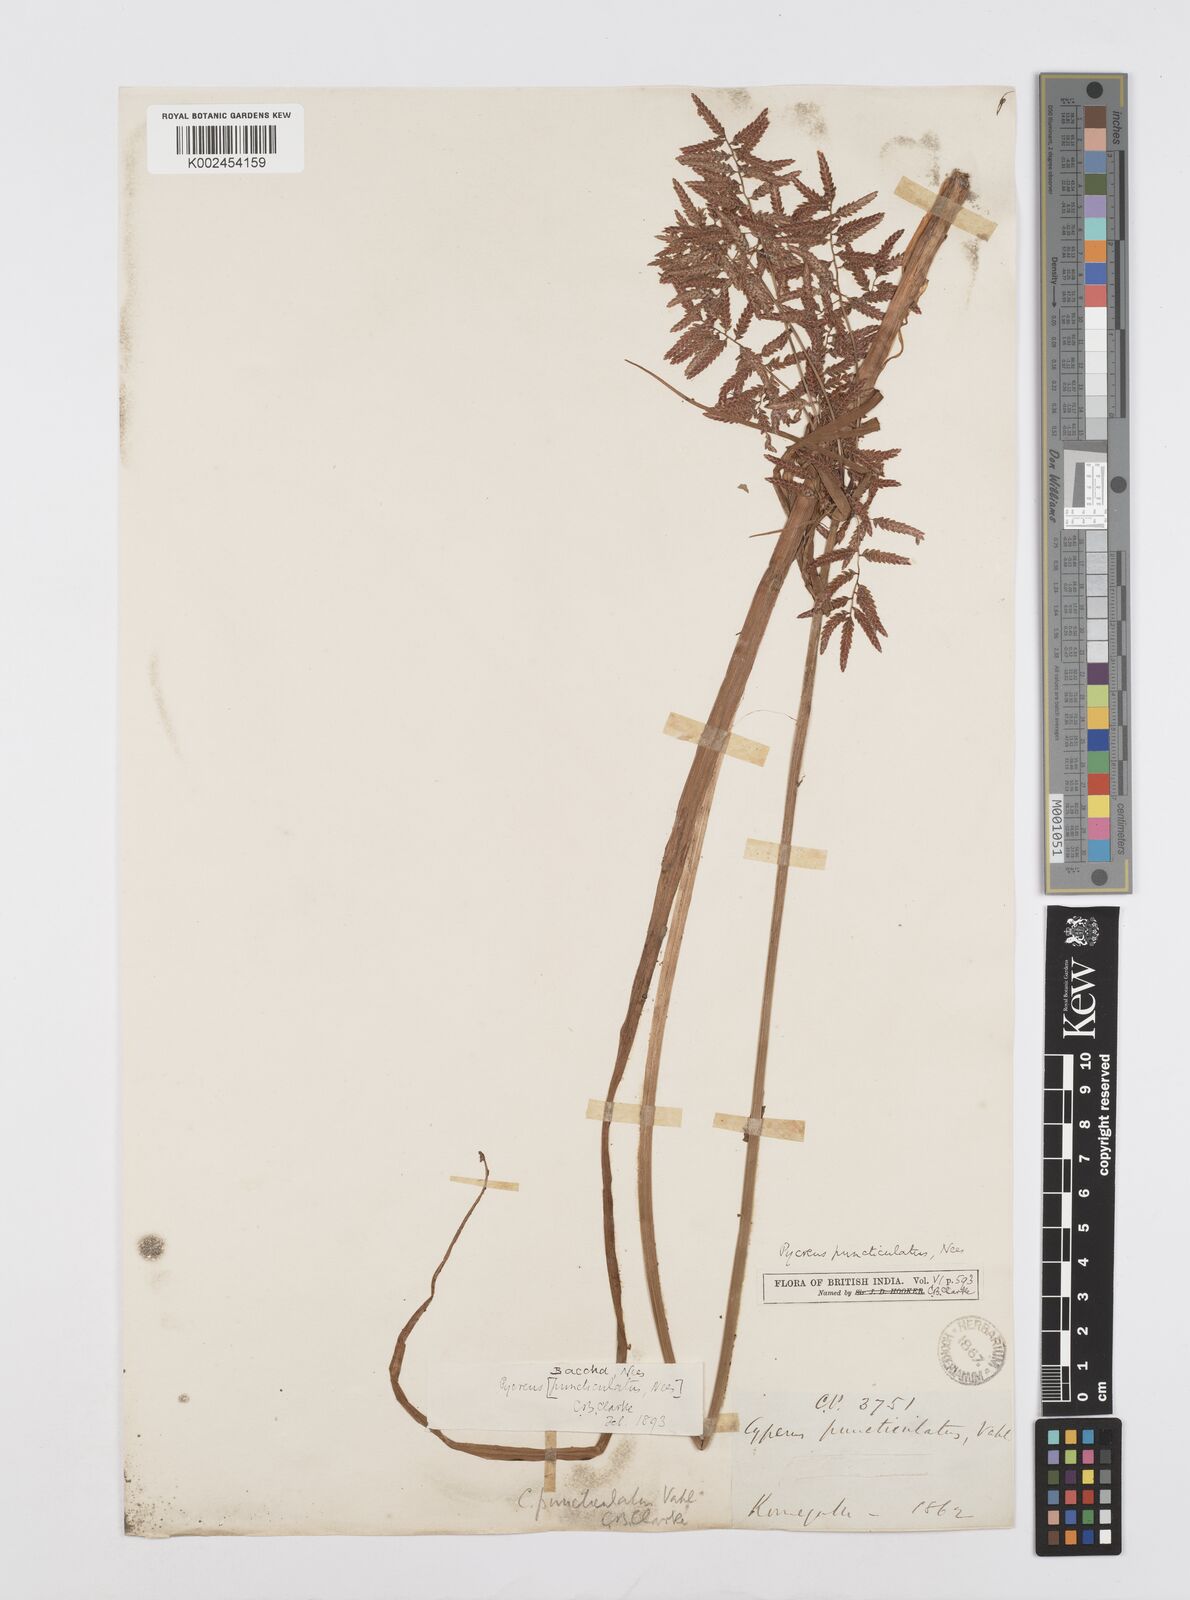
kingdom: Plantae
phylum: Tracheophyta
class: Liliopsida
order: Poales
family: Cyperaceae
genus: Cyperus
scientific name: Cyperus puncticulatus
